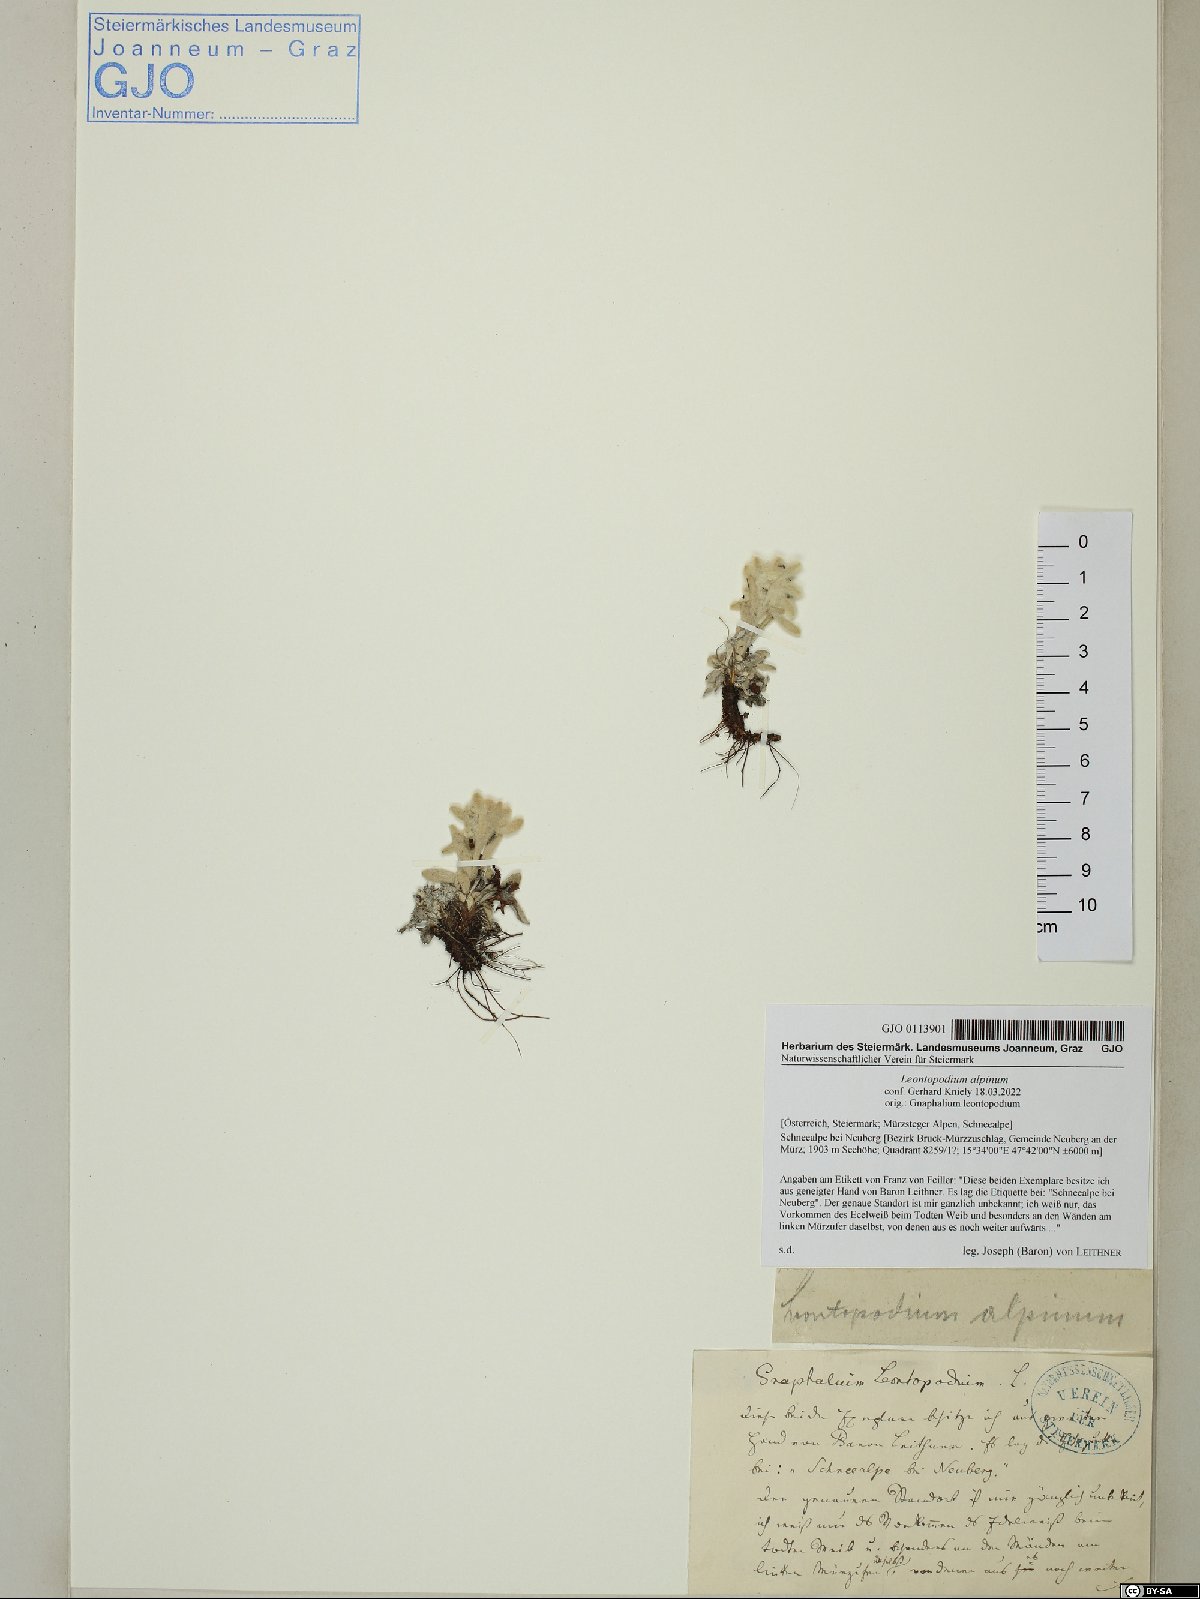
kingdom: Plantae
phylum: Tracheophyta
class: Magnoliopsida
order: Asterales
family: Asteraceae
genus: Leontopodium
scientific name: Leontopodium nivale
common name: Edelweiss
